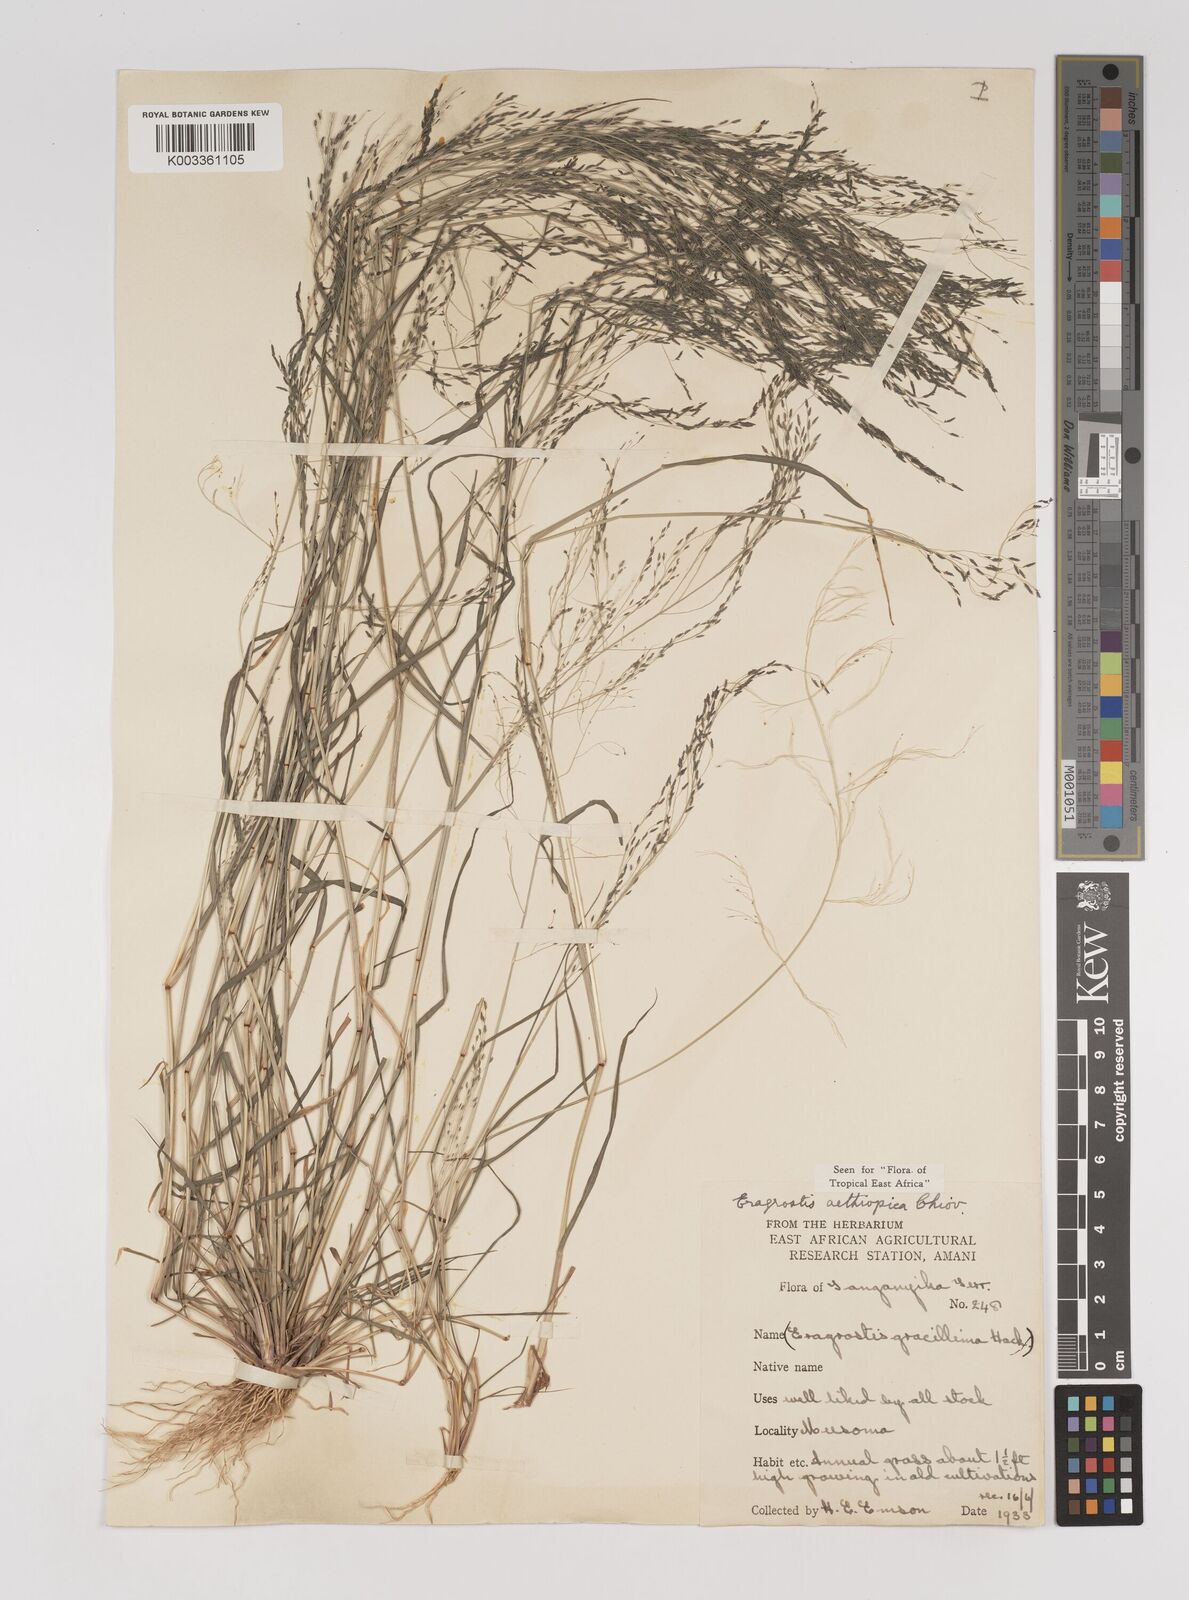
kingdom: Plantae
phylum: Tracheophyta
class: Liliopsida
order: Poales
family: Poaceae
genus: Eragrostis
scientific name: Eragrostis aethiopica
